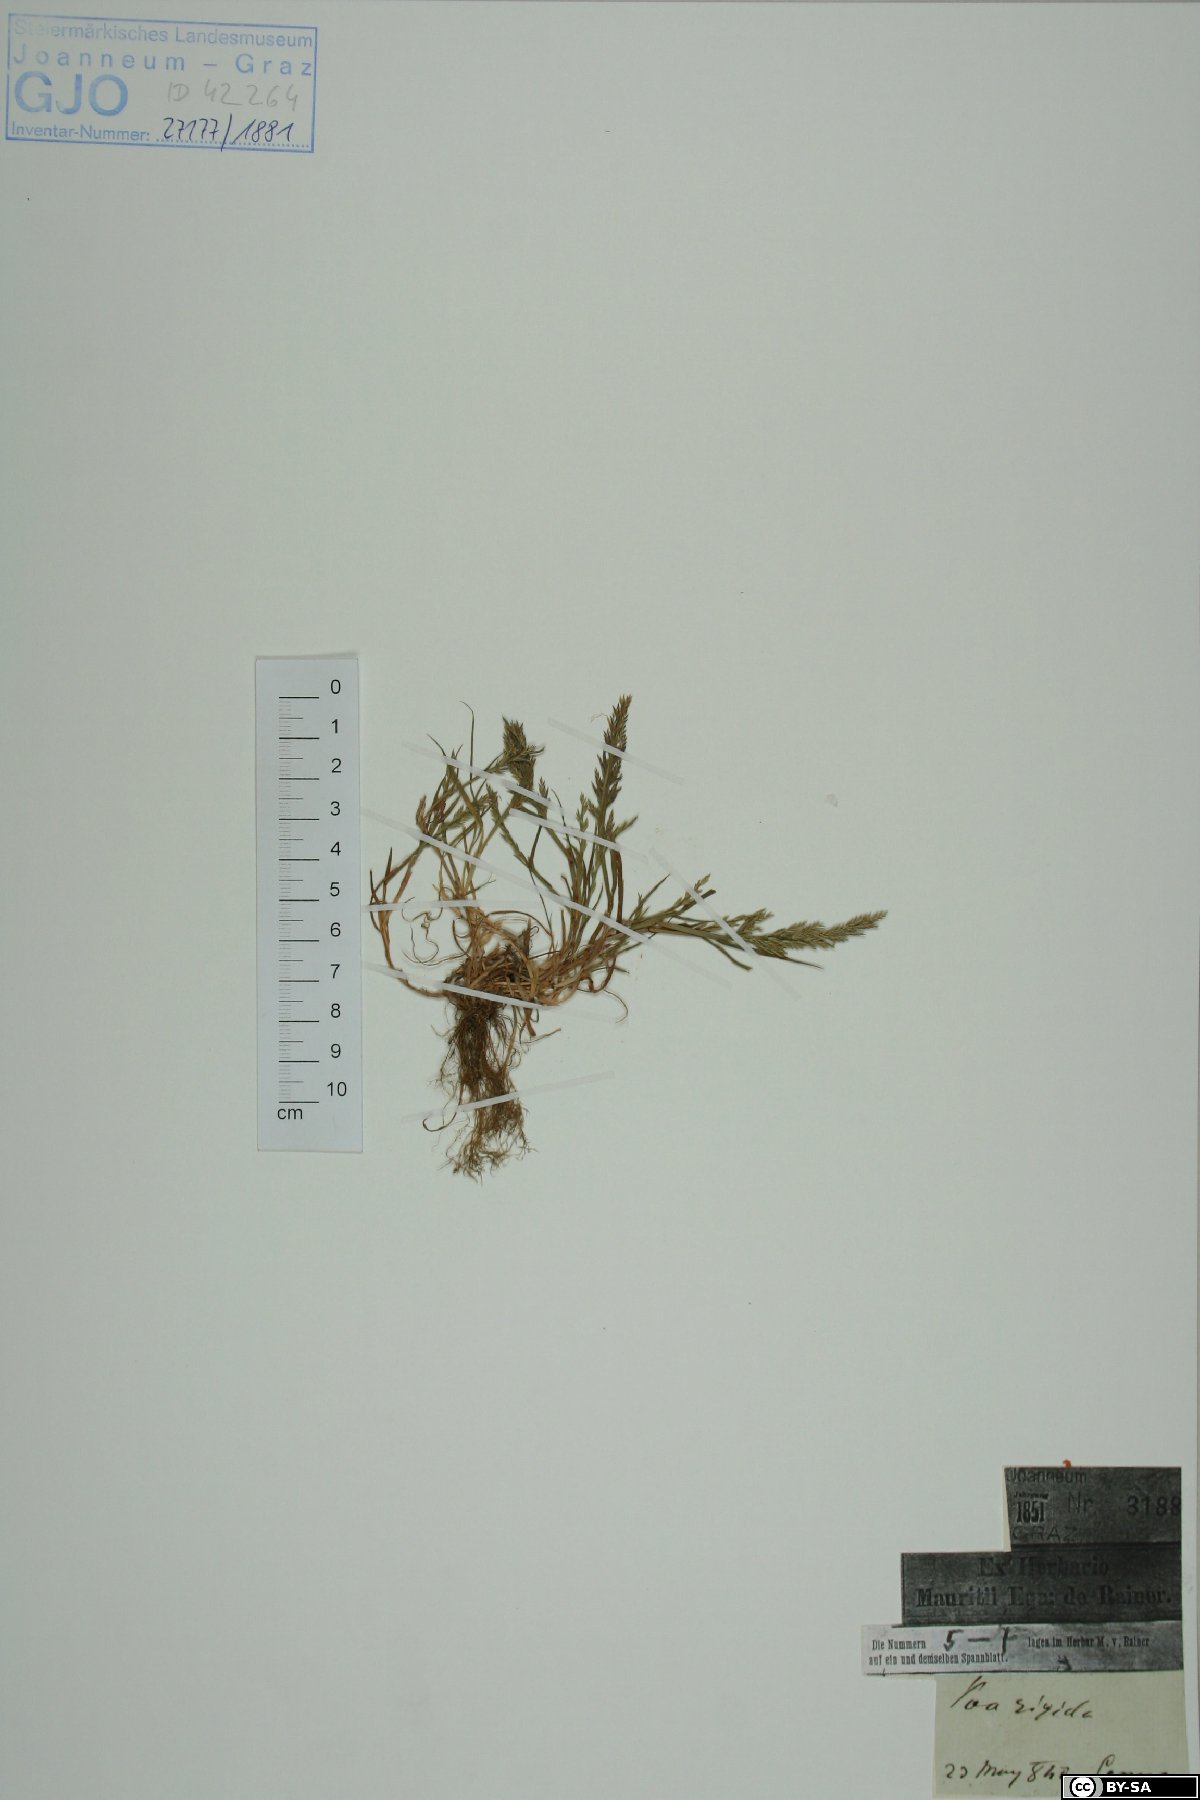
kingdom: Plantae
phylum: Tracheophyta
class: Liliopsida
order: Poales
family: Poaceae
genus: Catapodium
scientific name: Catapodium rigidum
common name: Fern-grass
